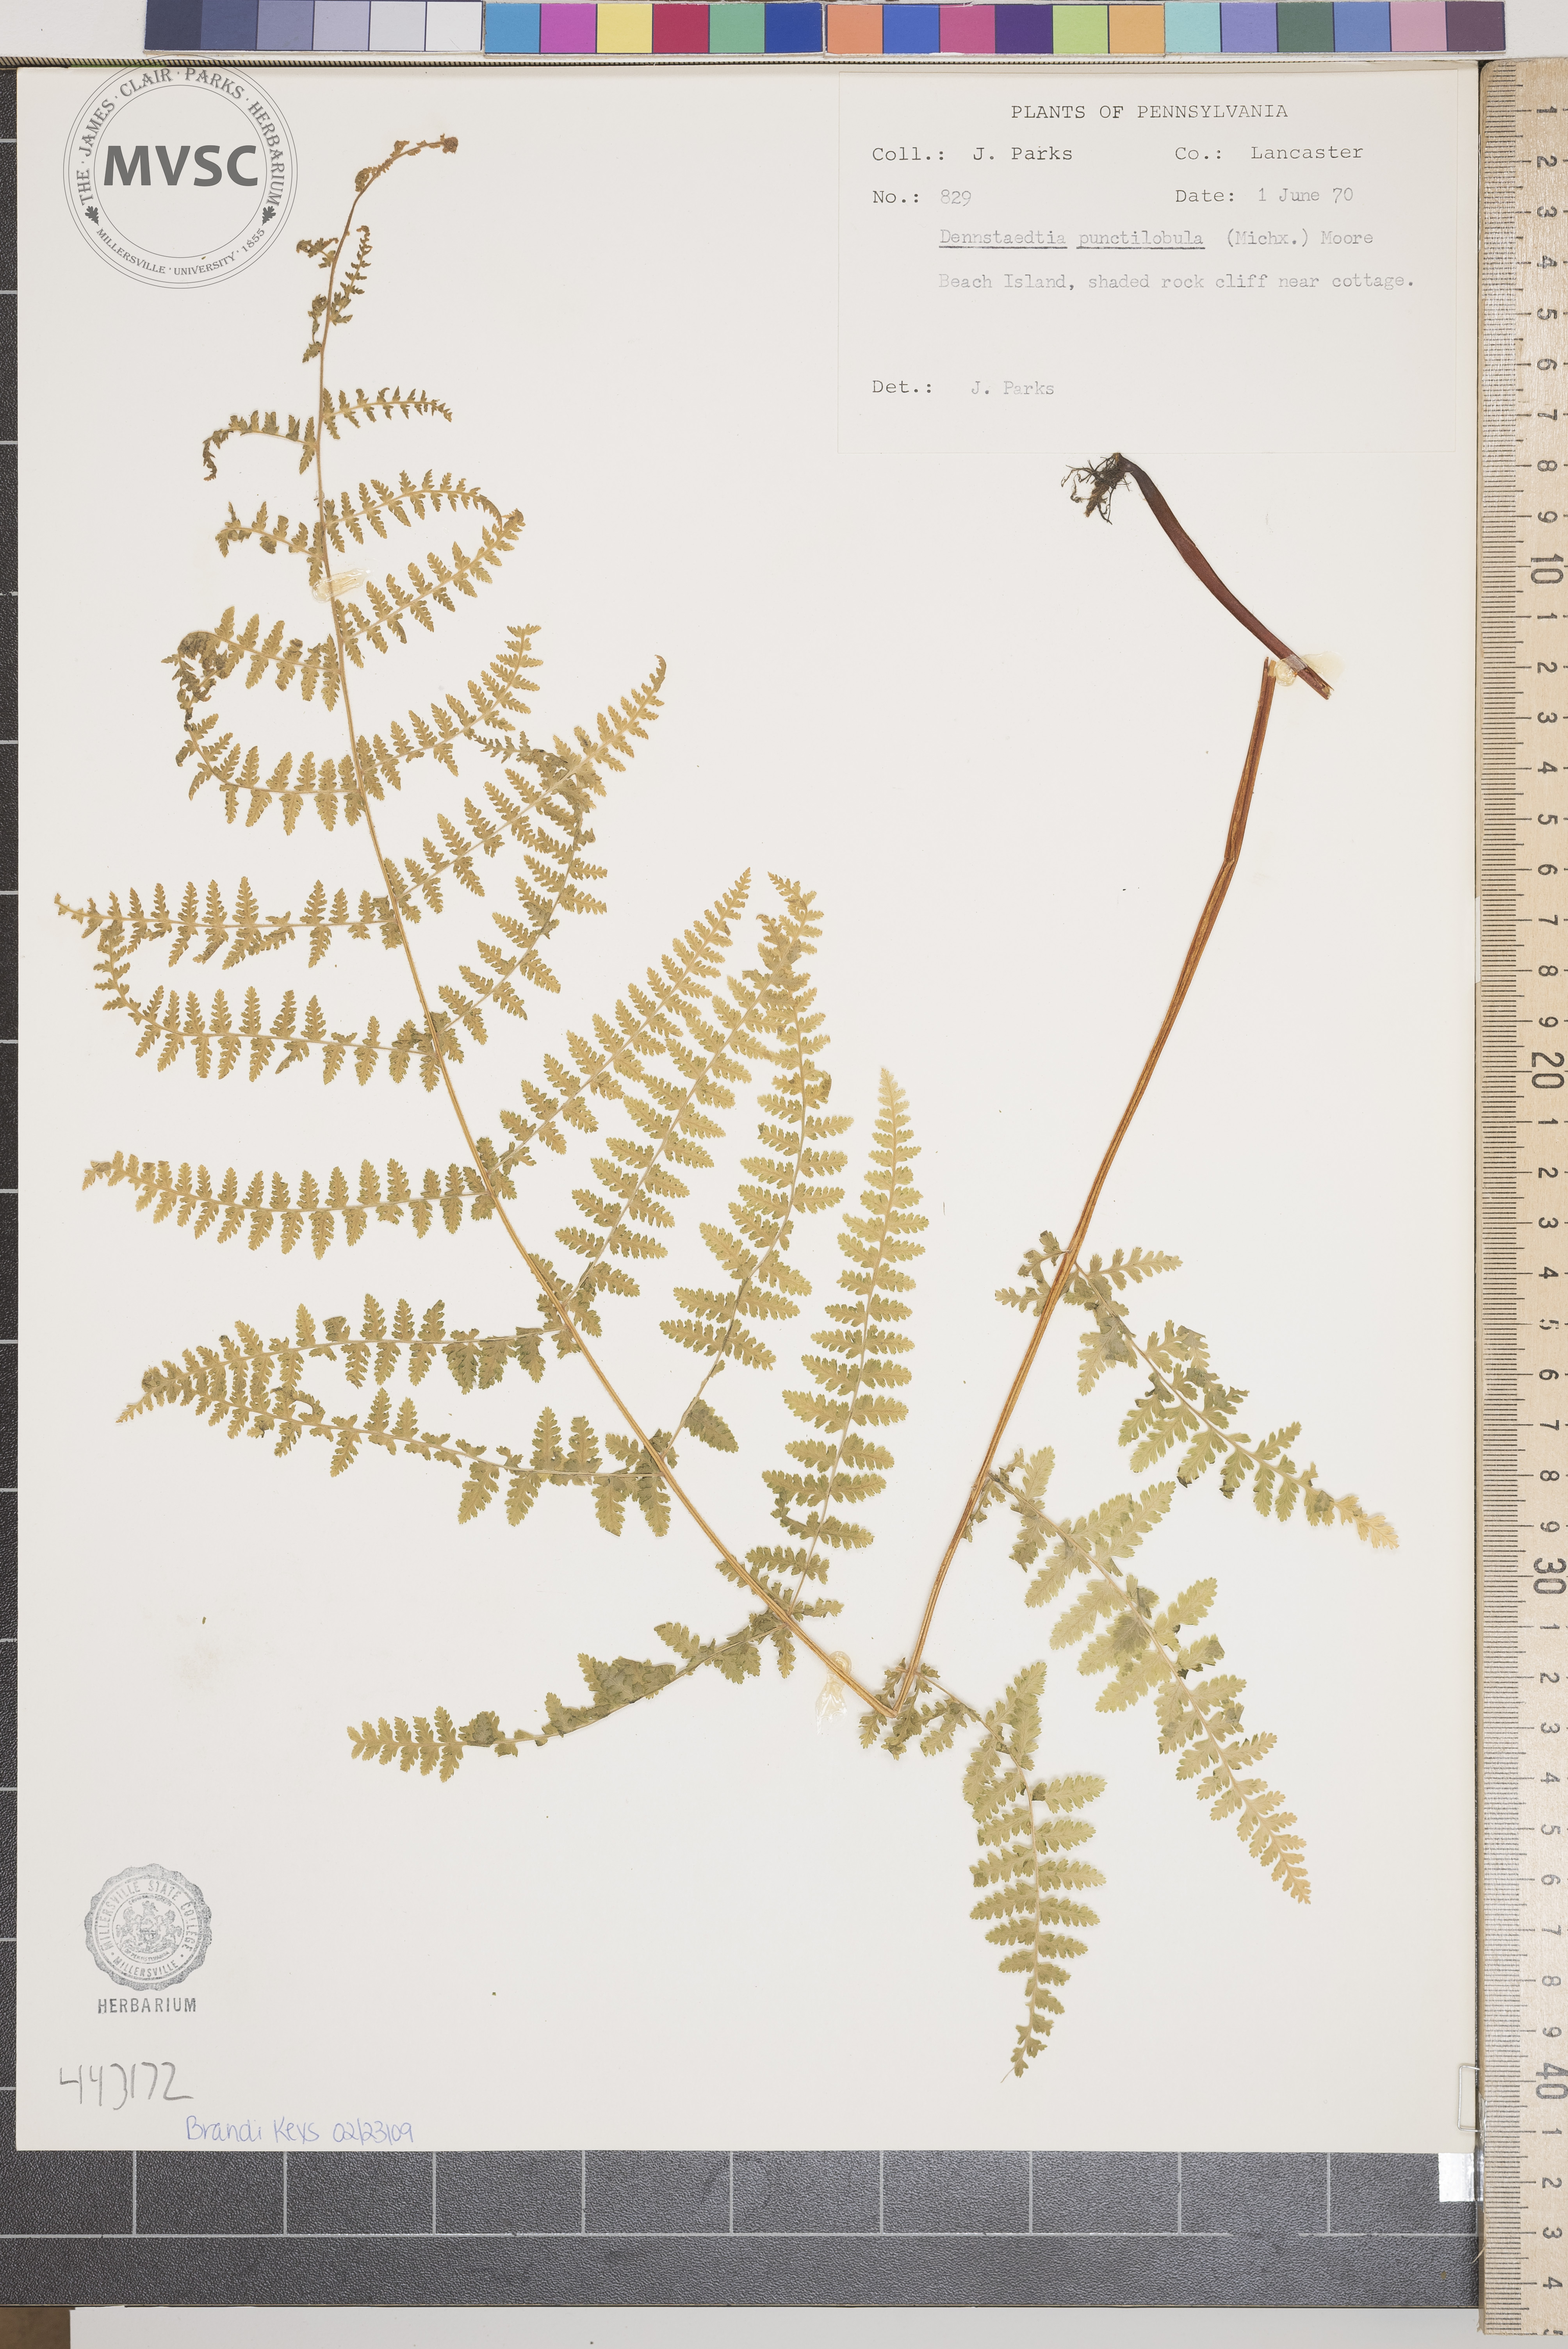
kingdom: Plantae
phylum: Tracheophyta
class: Polypodiopsida
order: Polypodiales
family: Dennstaedtiaceae
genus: Sitobolium
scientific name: Sitobolium punctilobum
